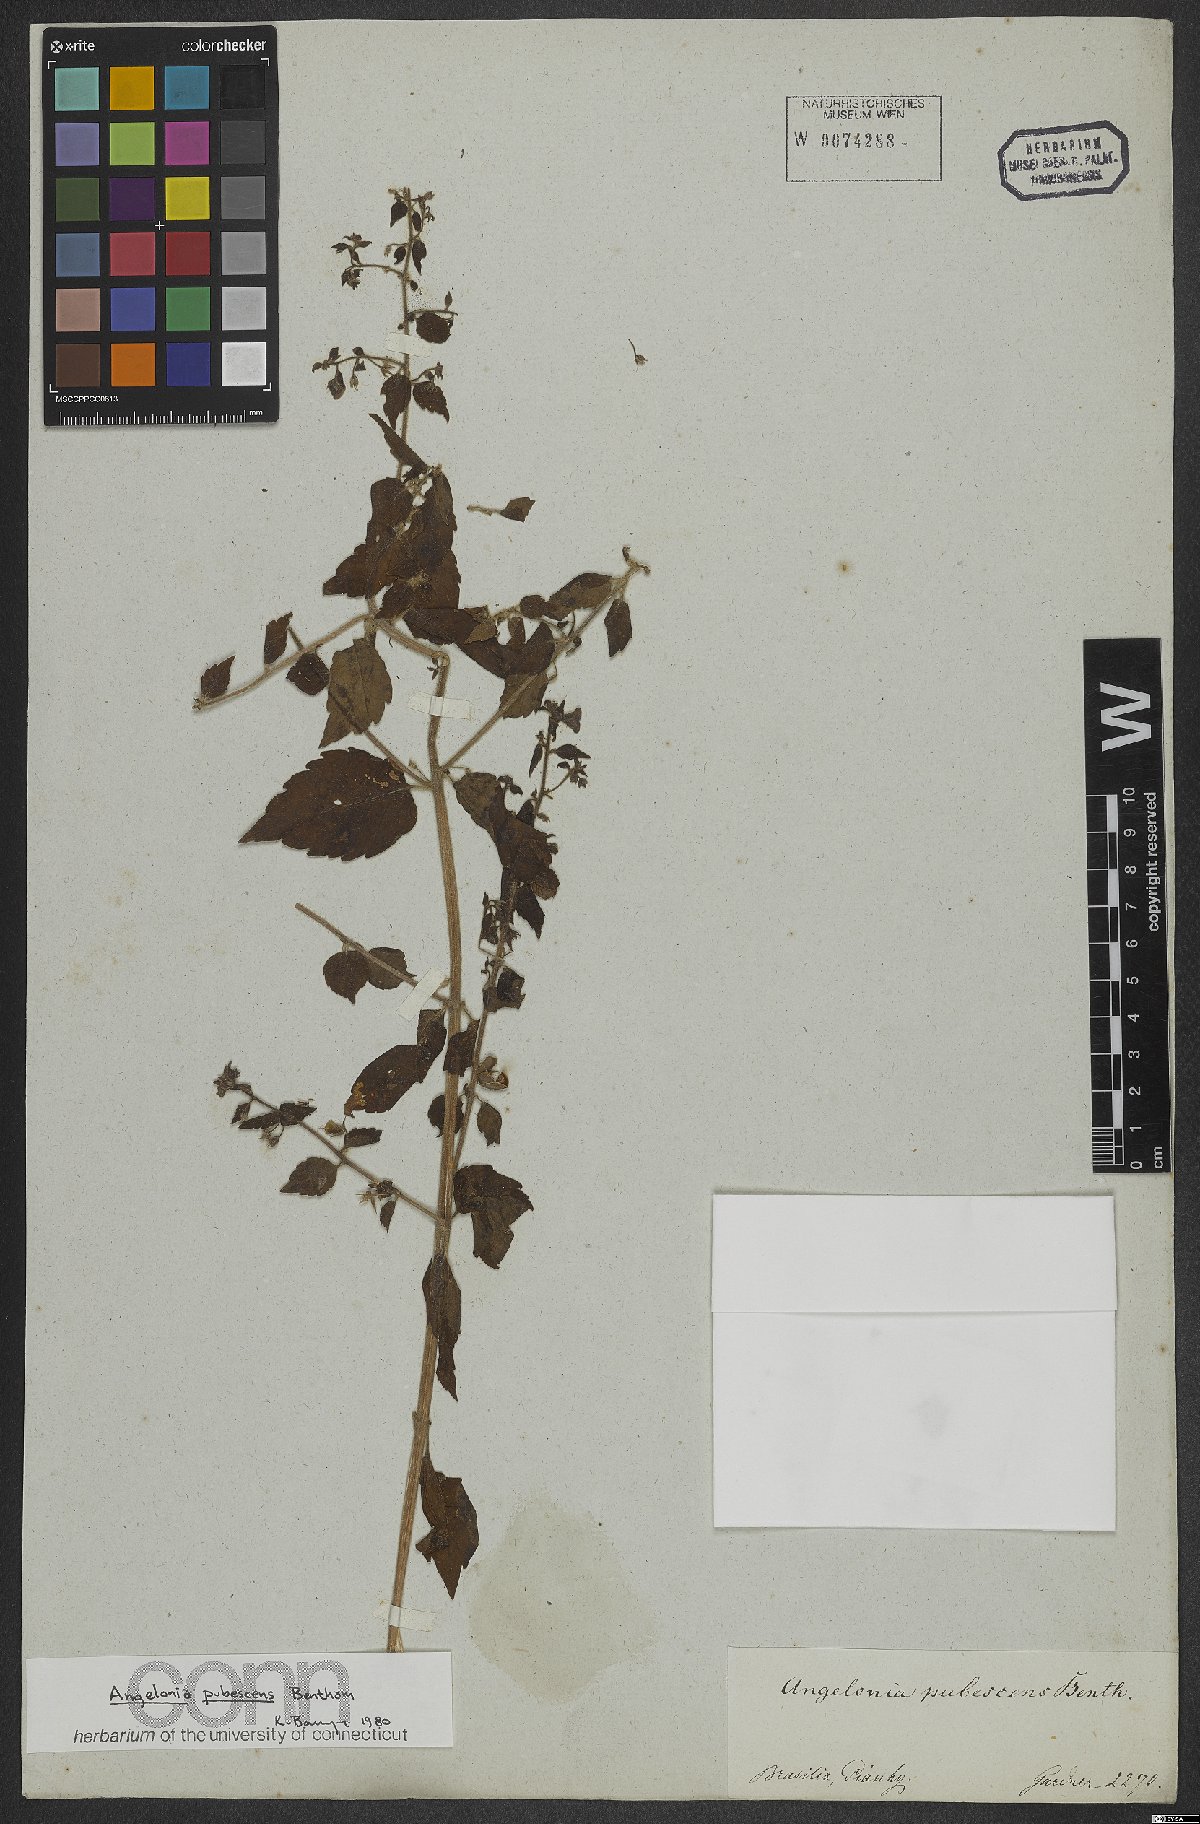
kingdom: Plantae
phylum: Tracheophyta
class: Magnoliopsida
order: Lamiales
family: Plantaginaceae
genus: Angelonia
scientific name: Angelonia pubescens
